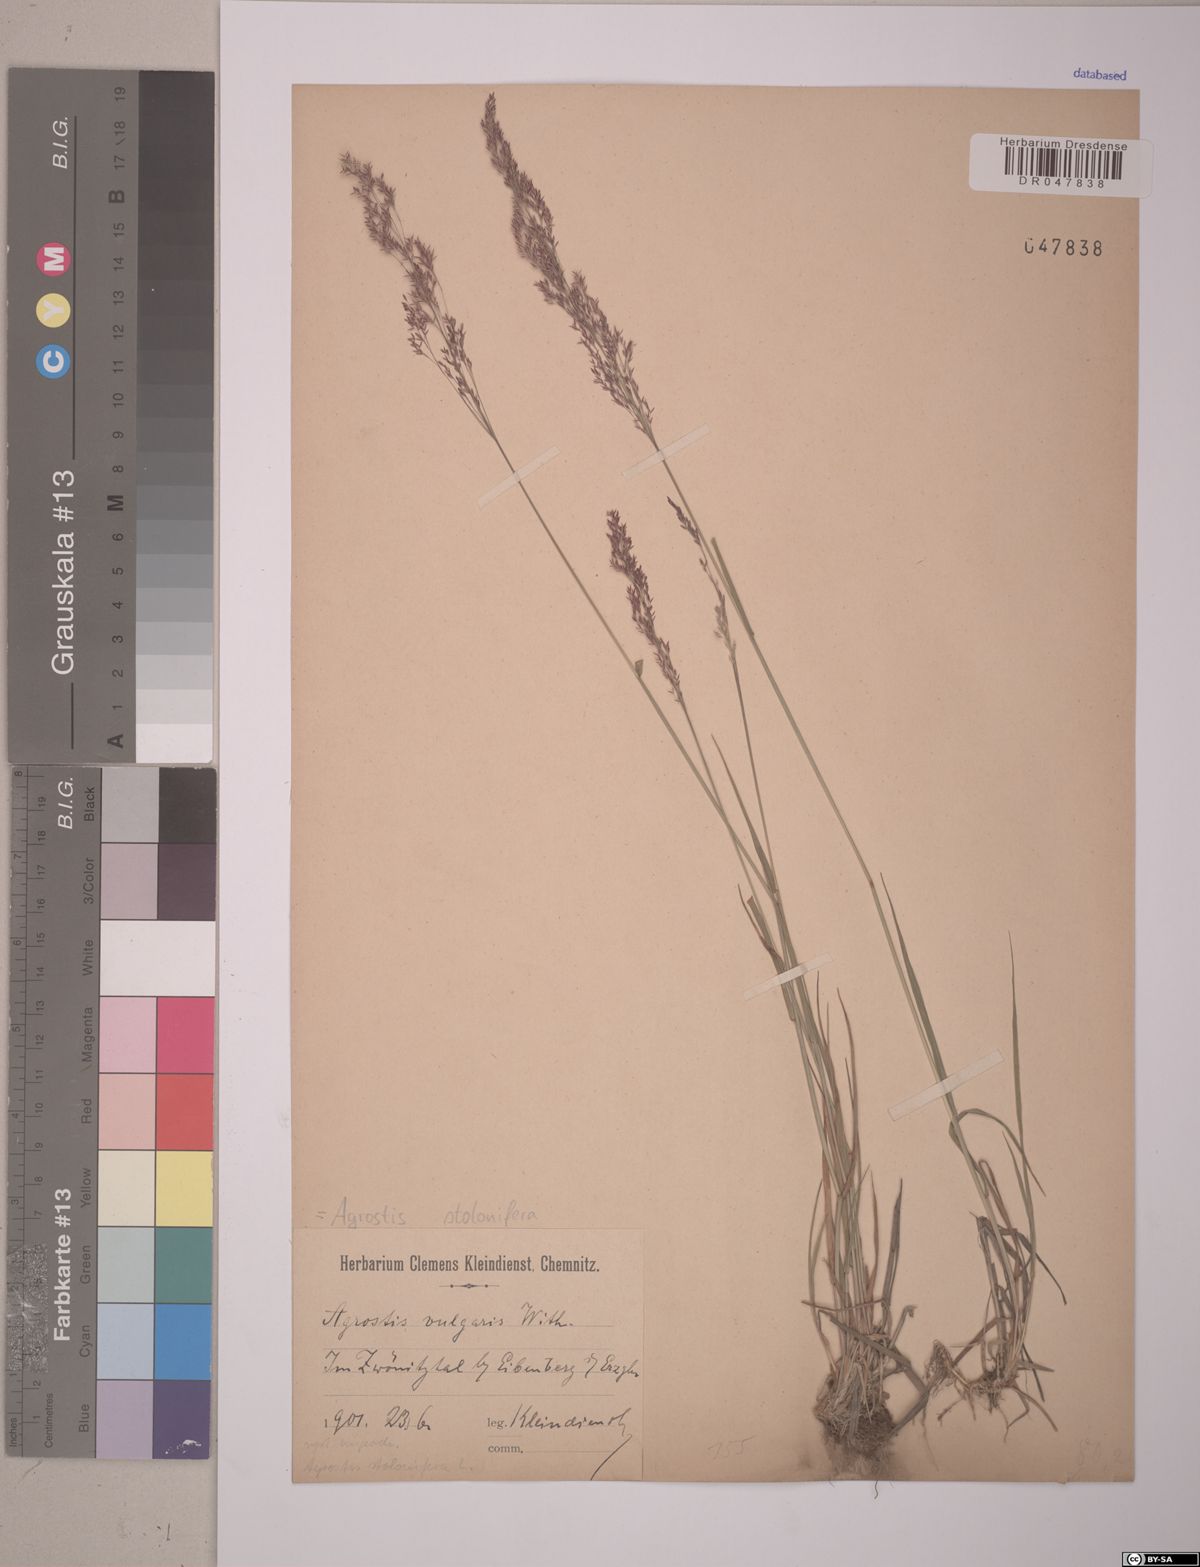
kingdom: Plantae
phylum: Tracheophyta
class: Liliopsida
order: Poales
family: Poaceae
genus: Agrostis
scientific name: Agrostis stolonifera
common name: Creeping bentgrass
